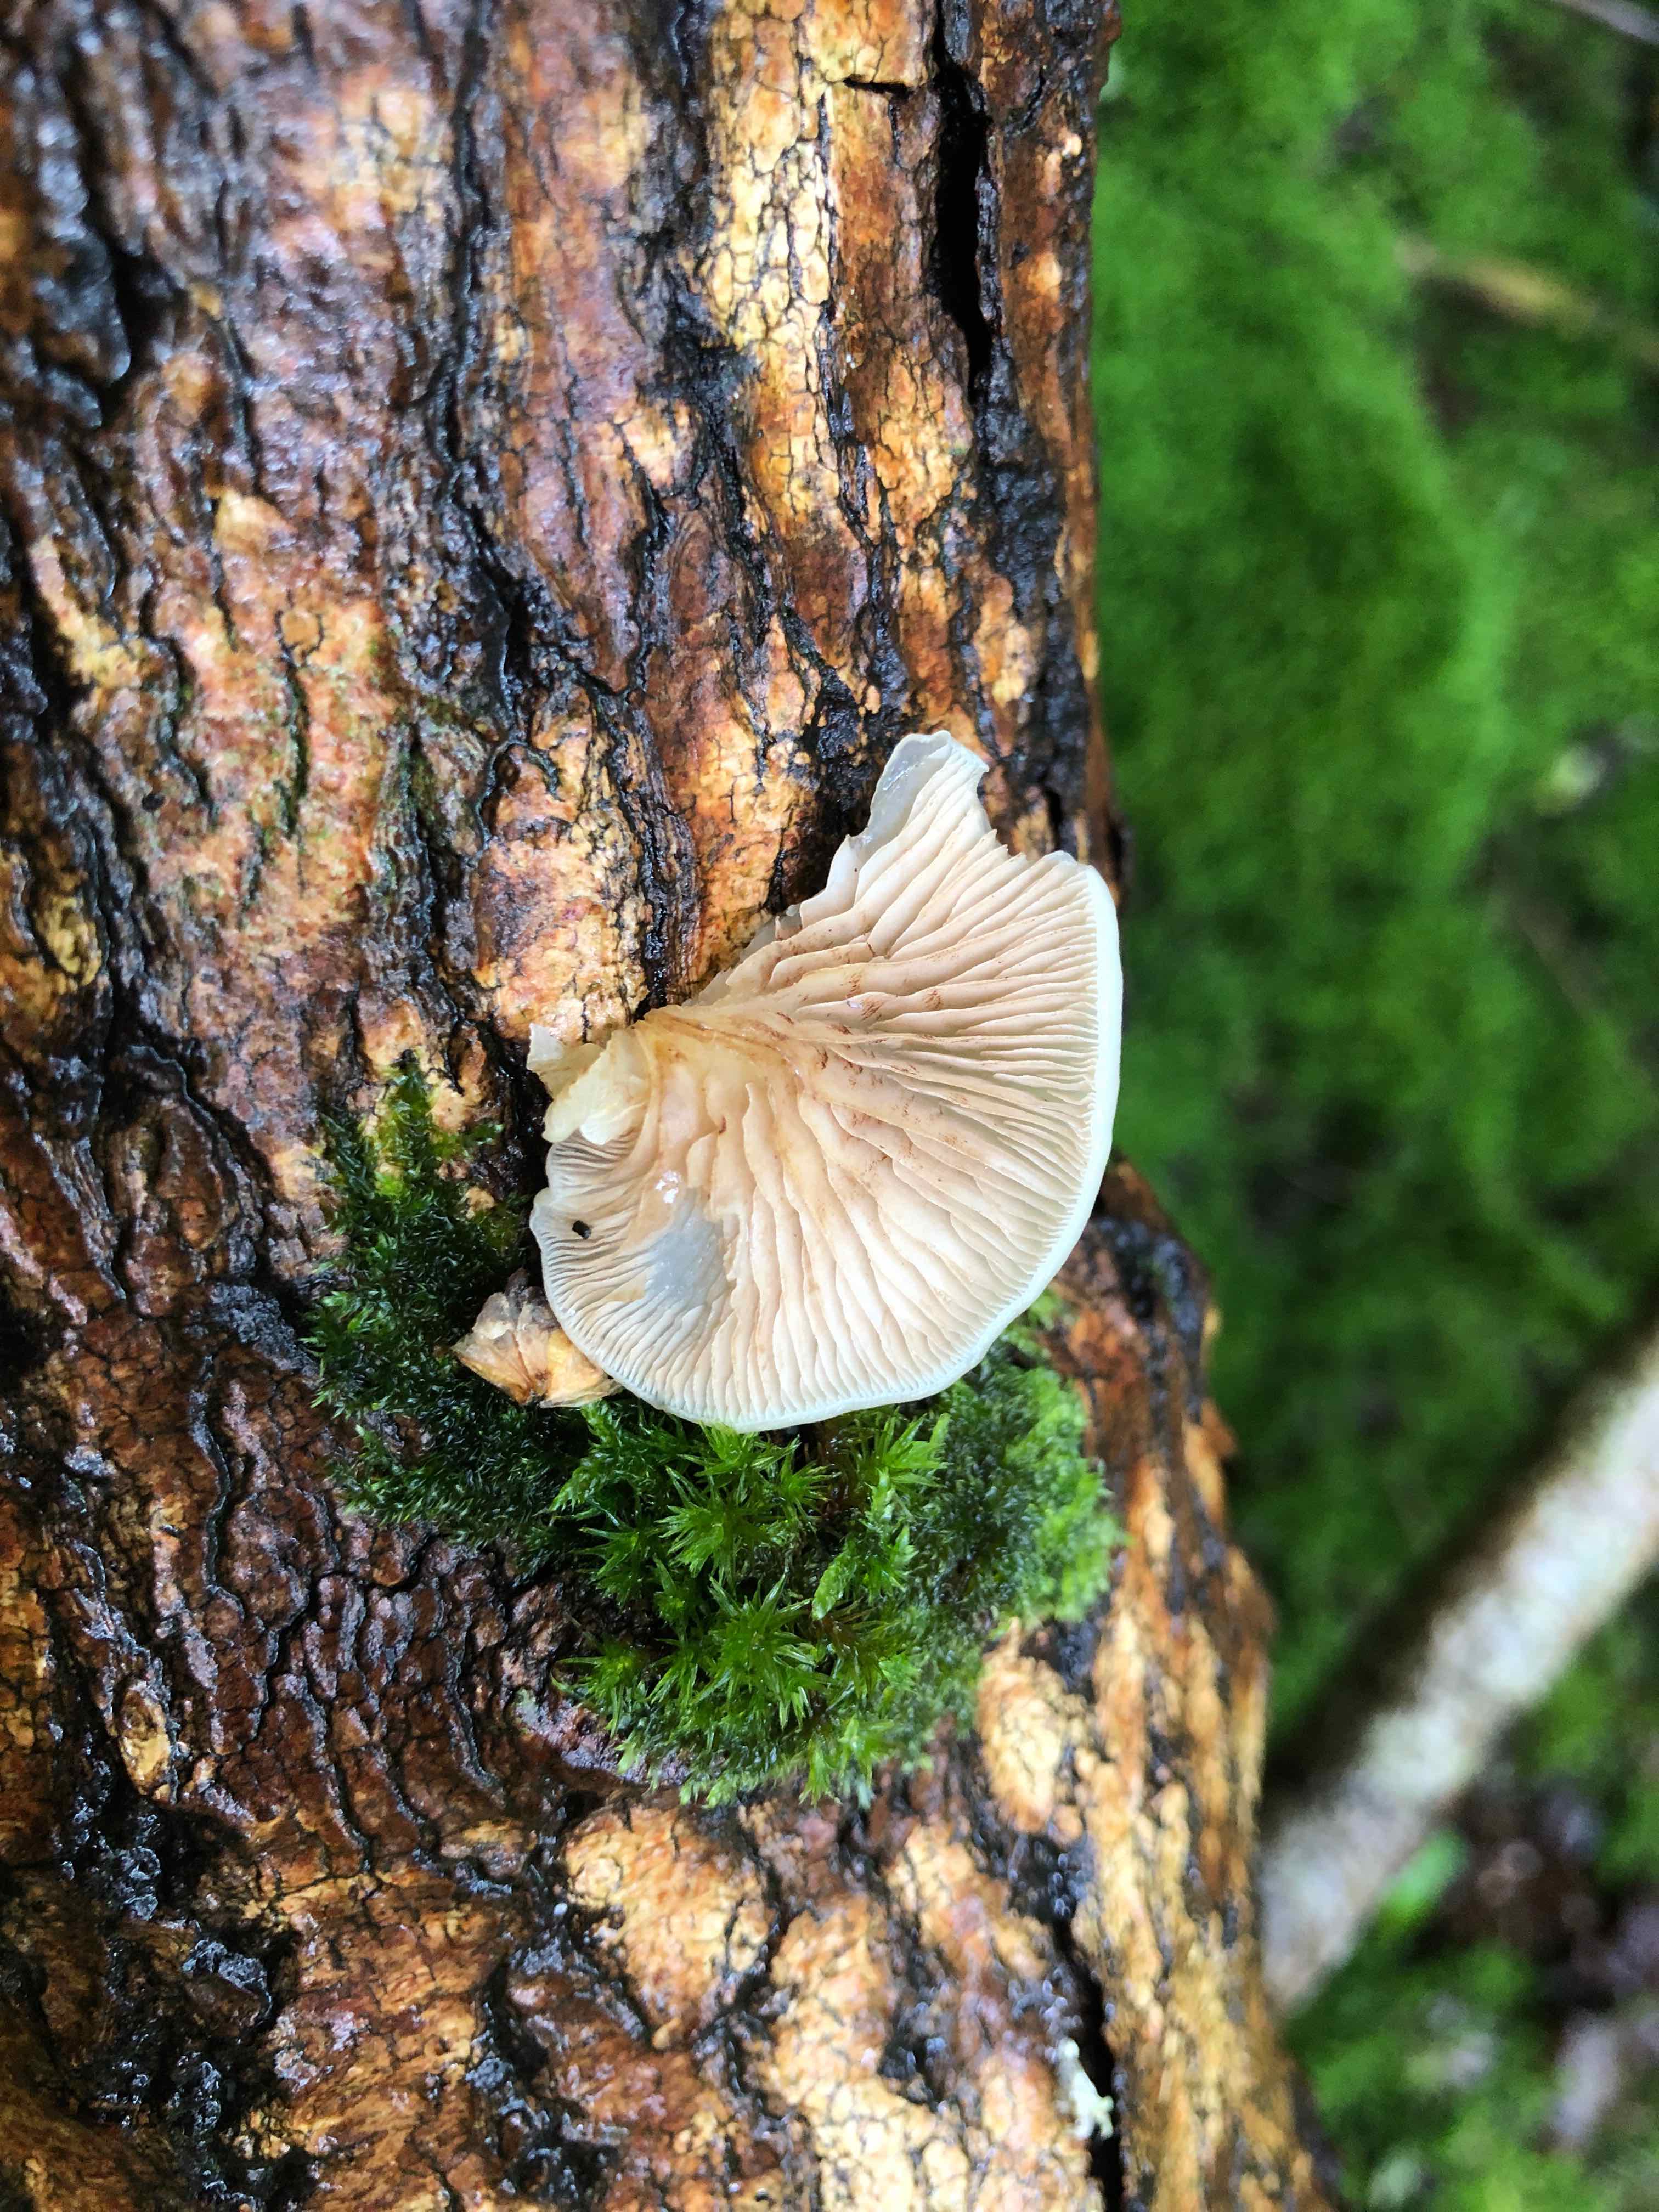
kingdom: Fungi
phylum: Basidiomycota
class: Agaricomycetes
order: Agaricales
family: Crepidotaceae
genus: Crepidotus
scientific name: Crepidotus mollis
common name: blød muslingesvamp
